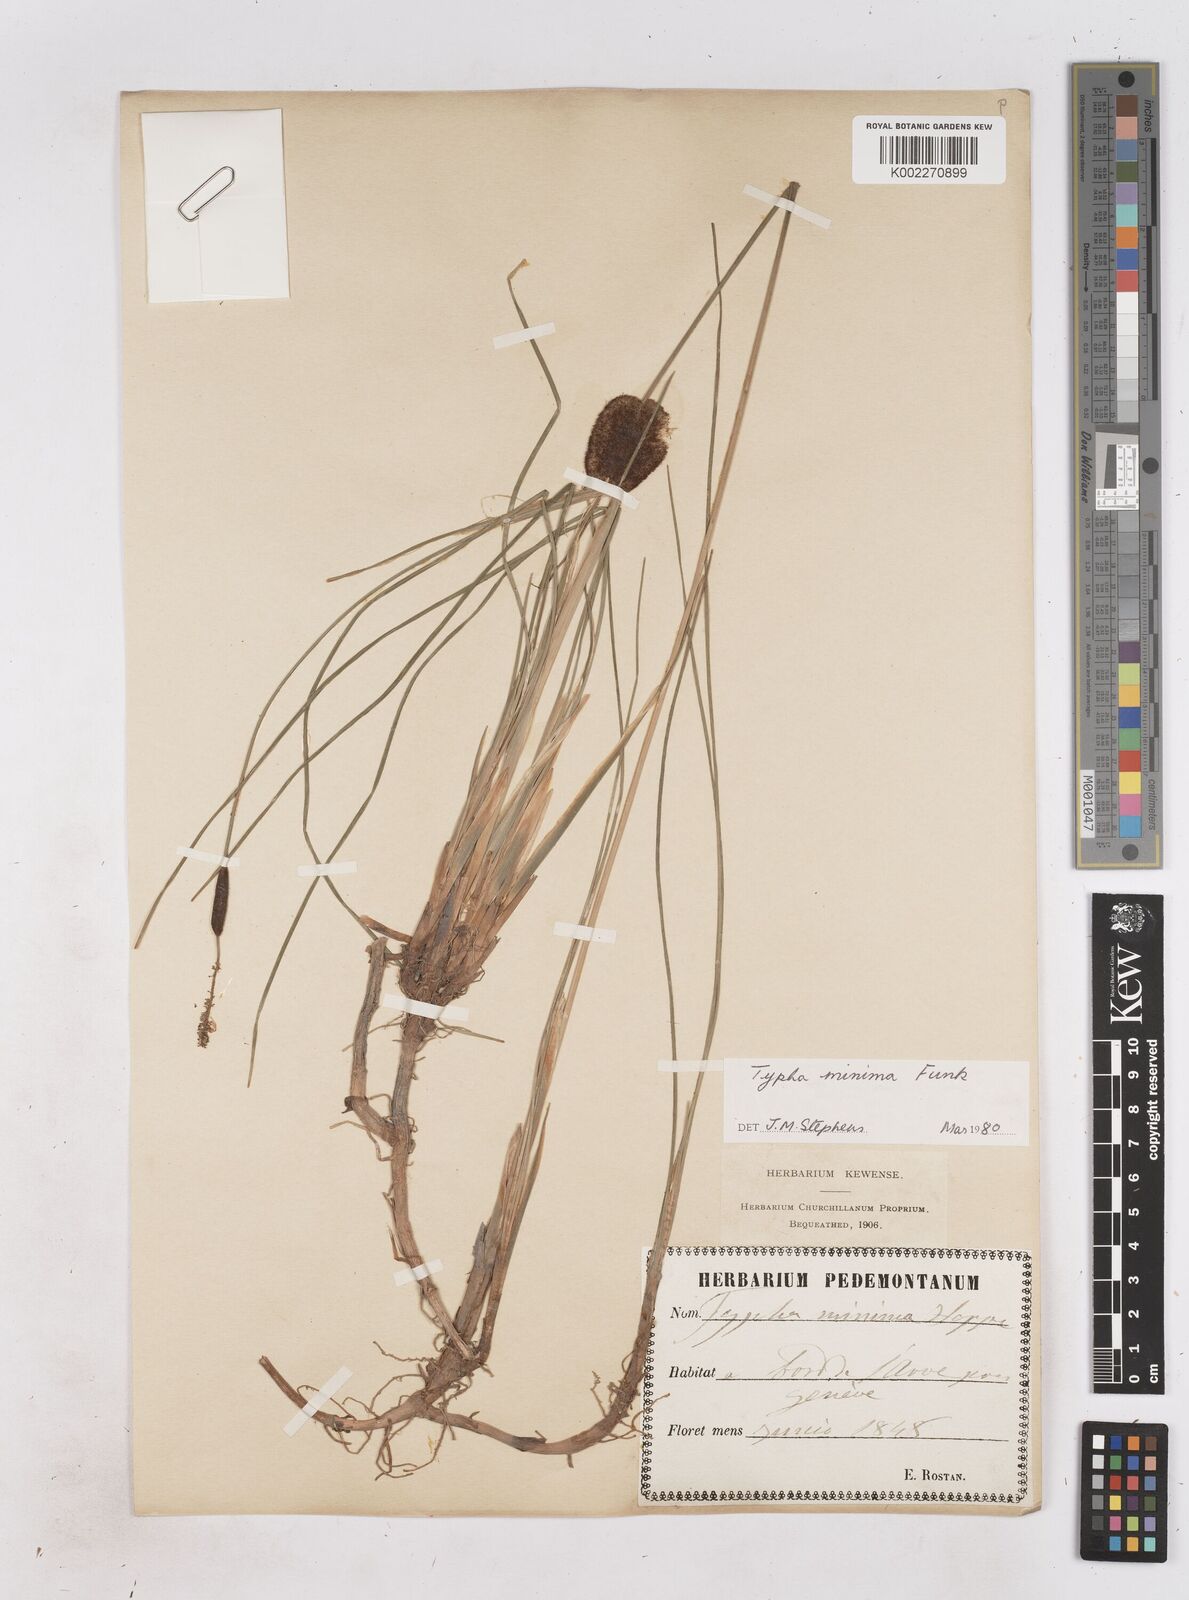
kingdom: Plantae
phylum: Tracheophyta
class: Liliopsida
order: Poales
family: Typhaceae
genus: Typha
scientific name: Typha minima
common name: Dwarf bulrush
